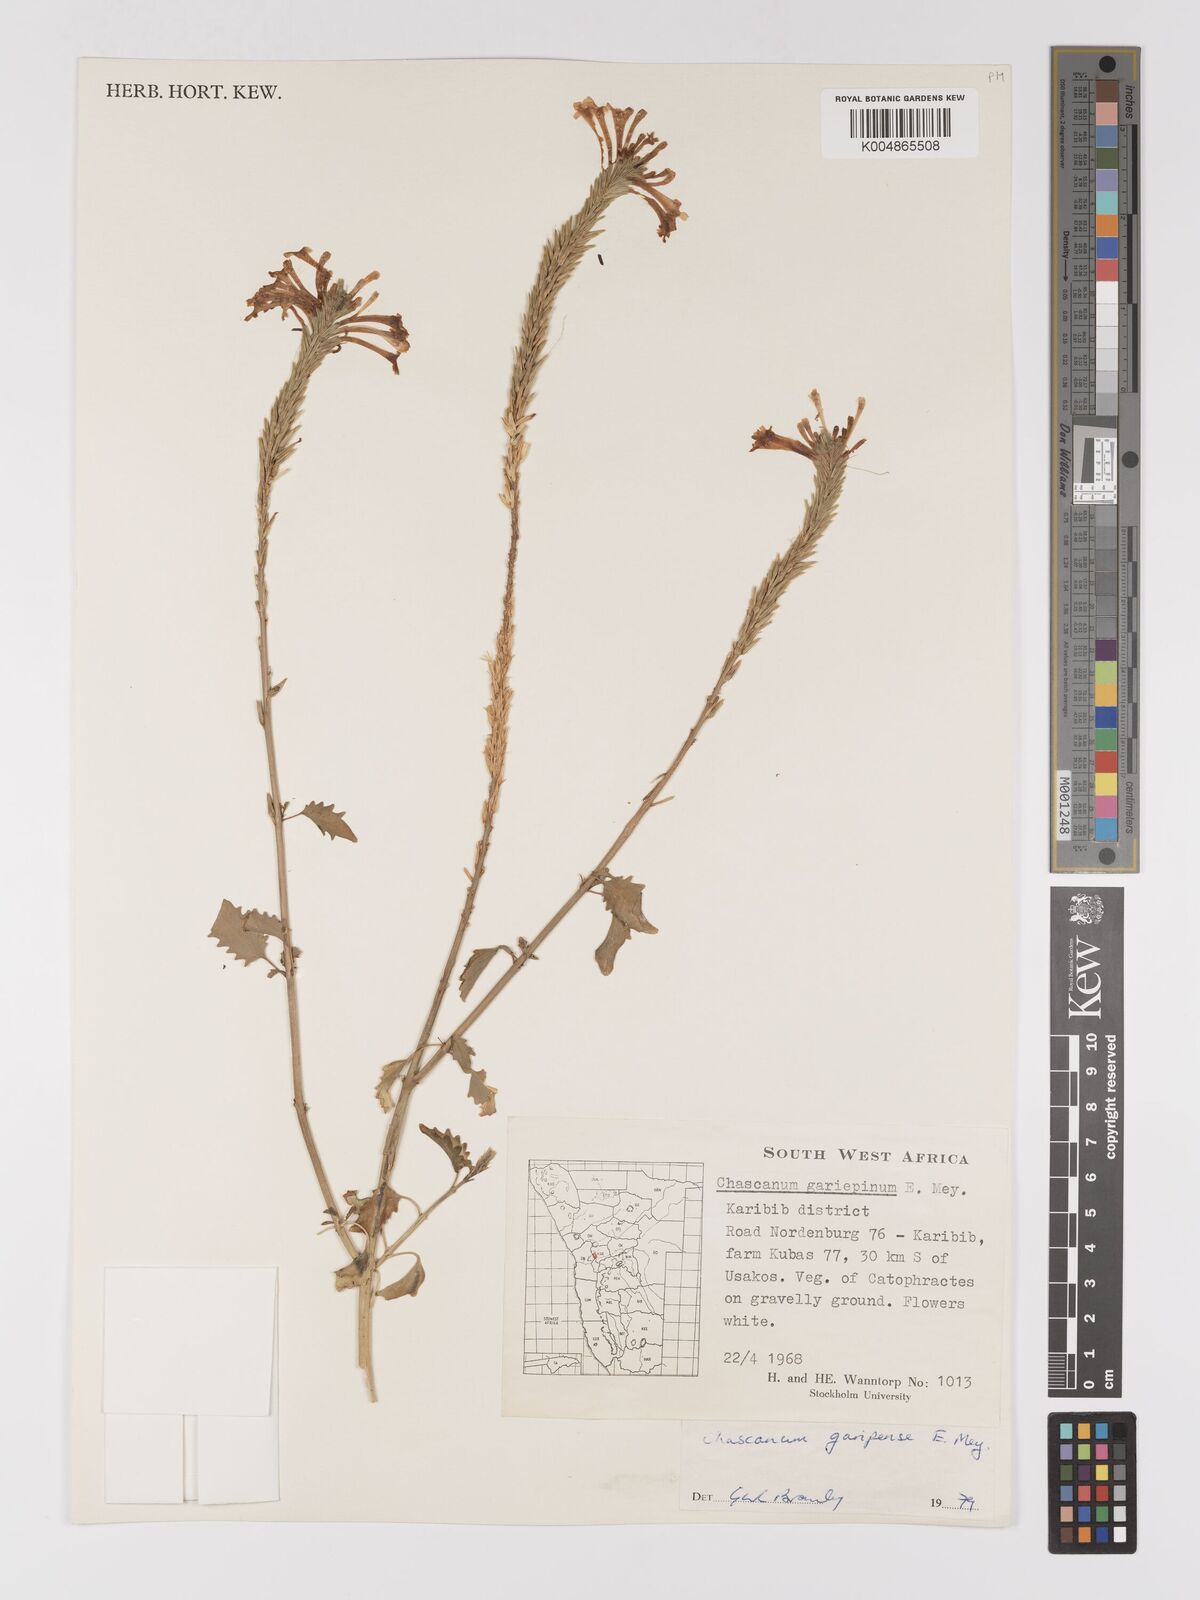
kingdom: Plantae
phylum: Tracheophyta
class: Magnoliopsida
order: Lamiales
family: Verbenaceae
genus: Chascanum
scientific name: Chascanum garipense
